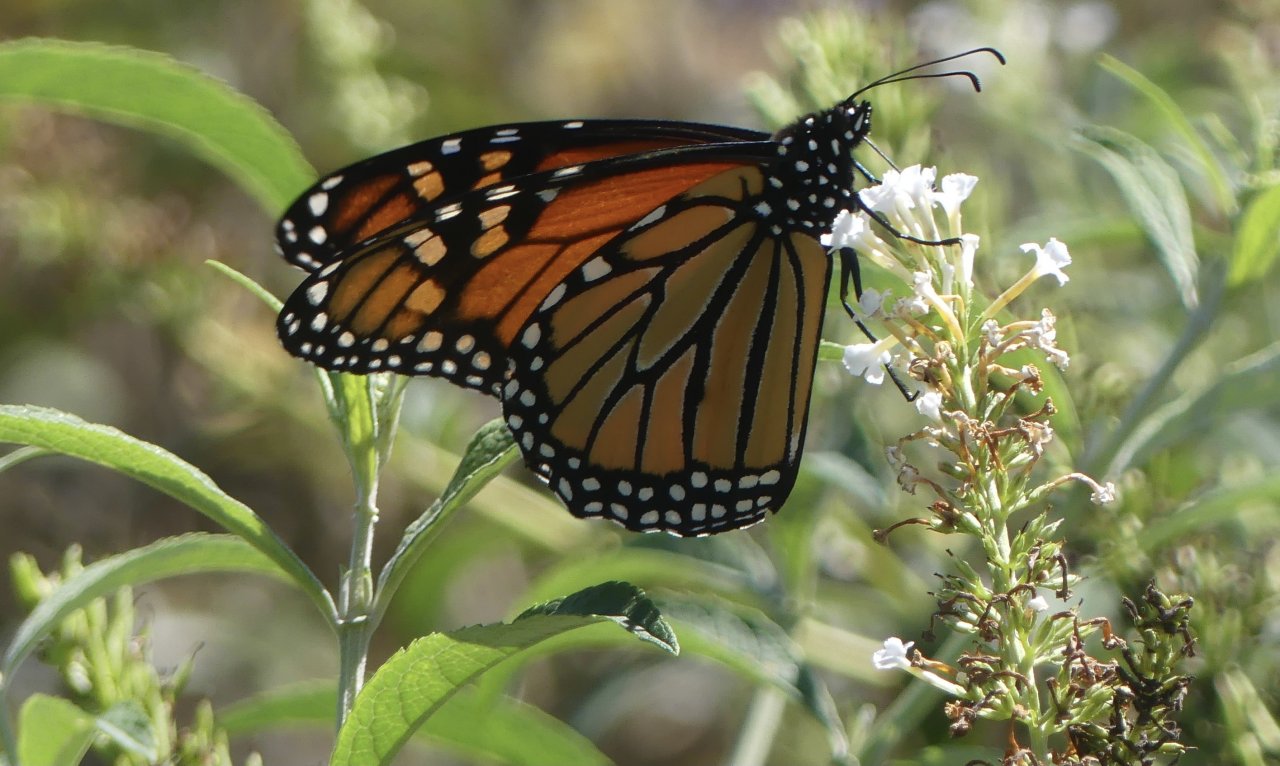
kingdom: Animalia
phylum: Arthropoda
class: Insecta
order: Lepidoptera
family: Nymphalidae
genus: Danaus
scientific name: Danaus plexippus
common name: Monarch
